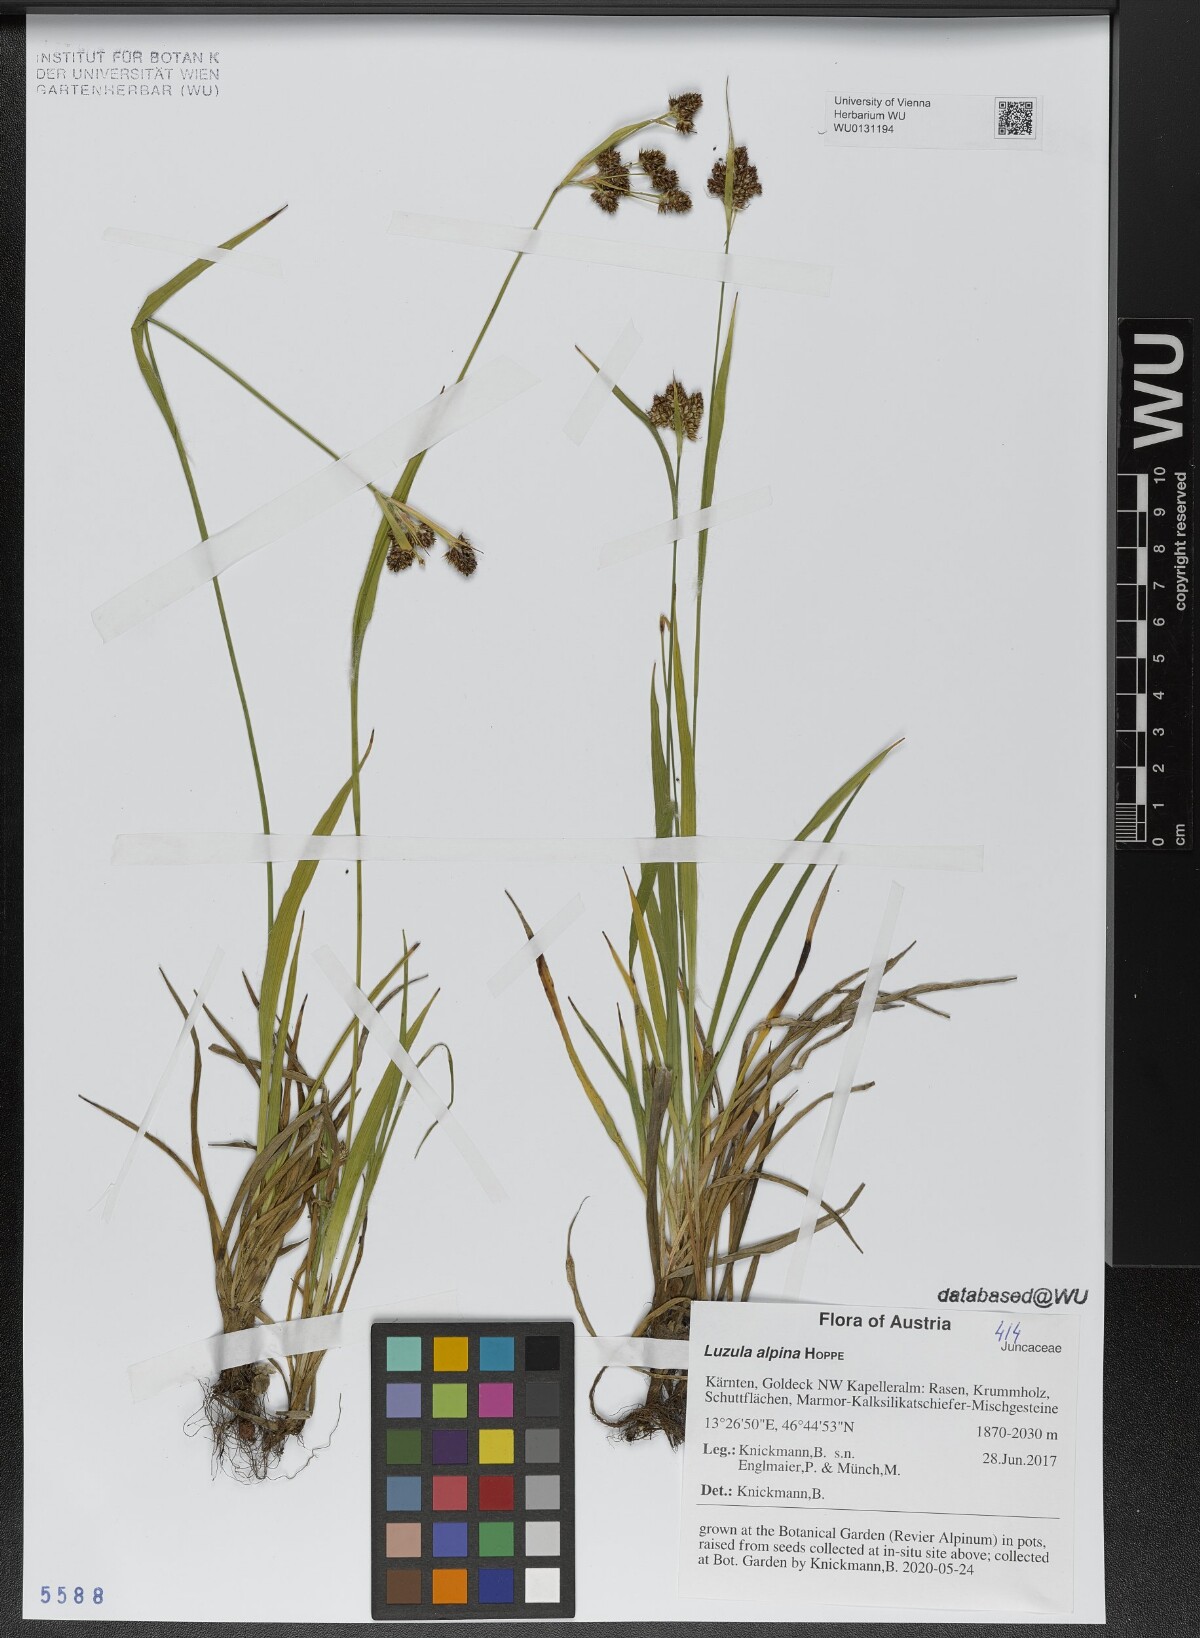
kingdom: Plantae
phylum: Tracheophyta
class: Liliopsida
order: Poales
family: Juncaceae
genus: Luzula
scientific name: Luzula alpina
